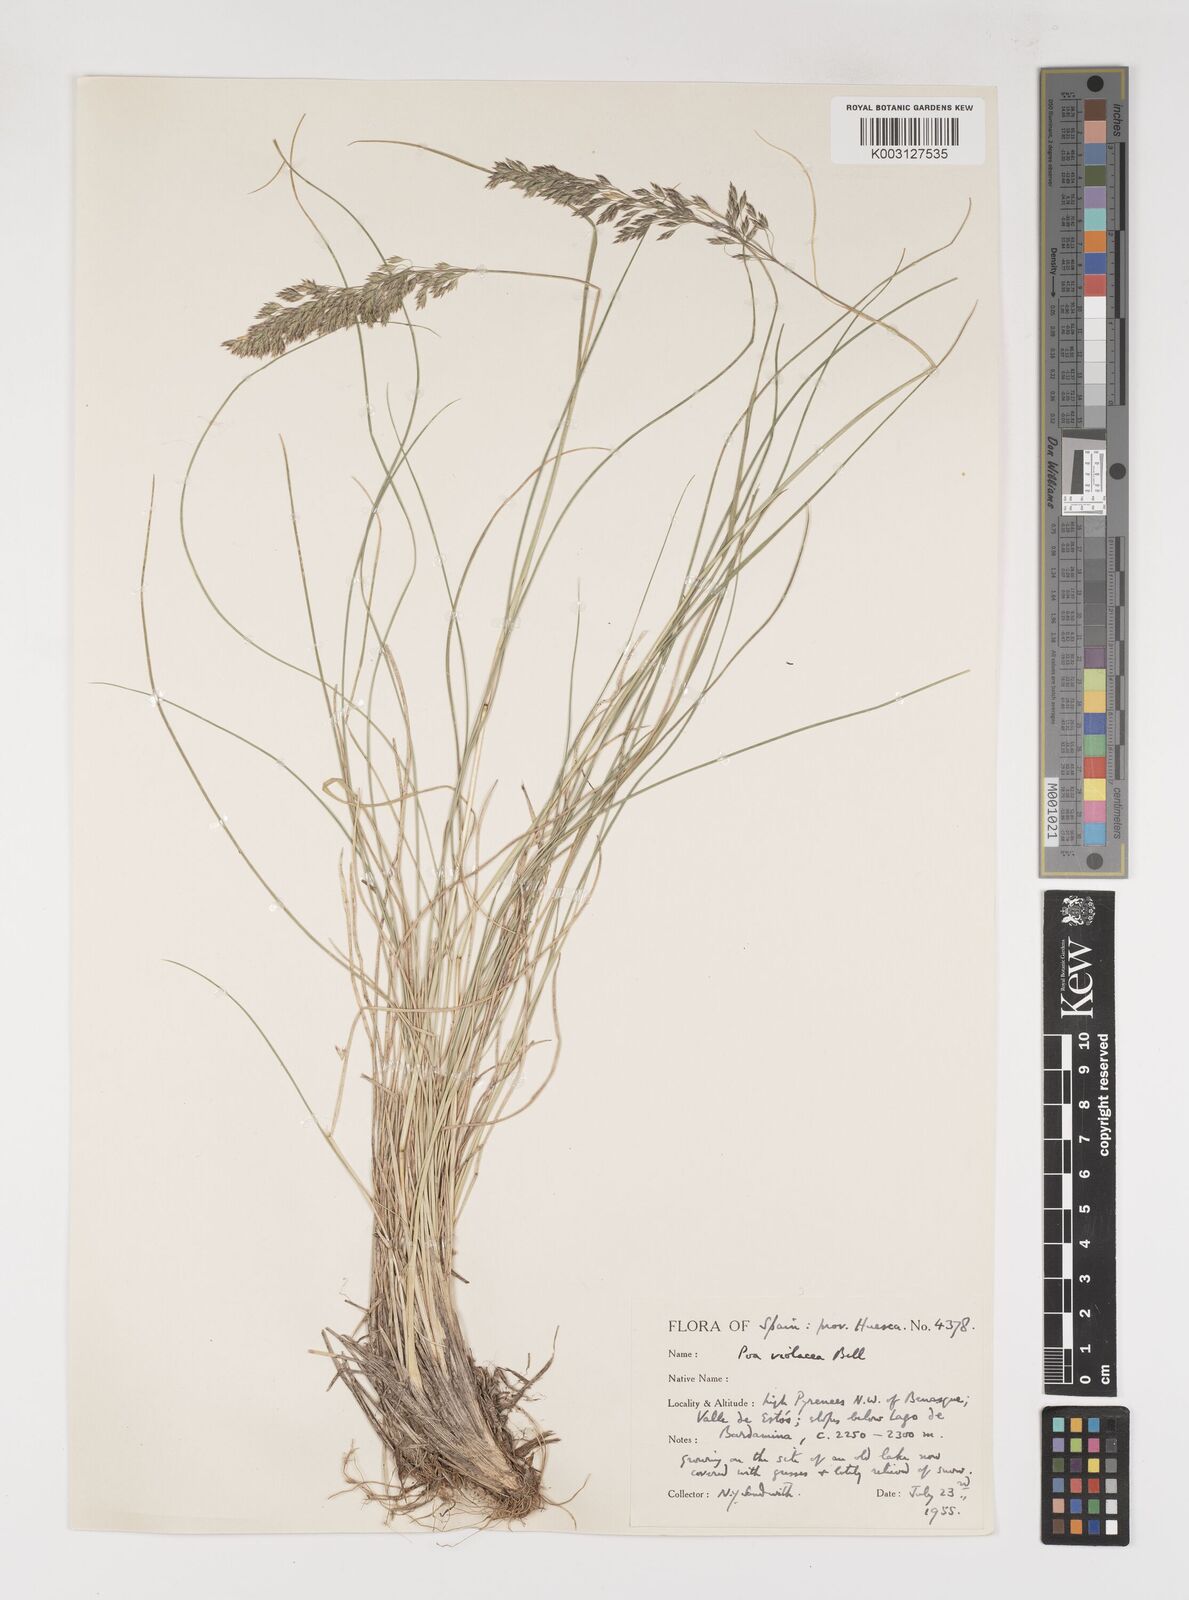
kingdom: Plantae
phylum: Tracheophyta
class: Liliopsida
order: Poales
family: Poaceae
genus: Bellardiochloa
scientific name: Bellardiochloa variegata
